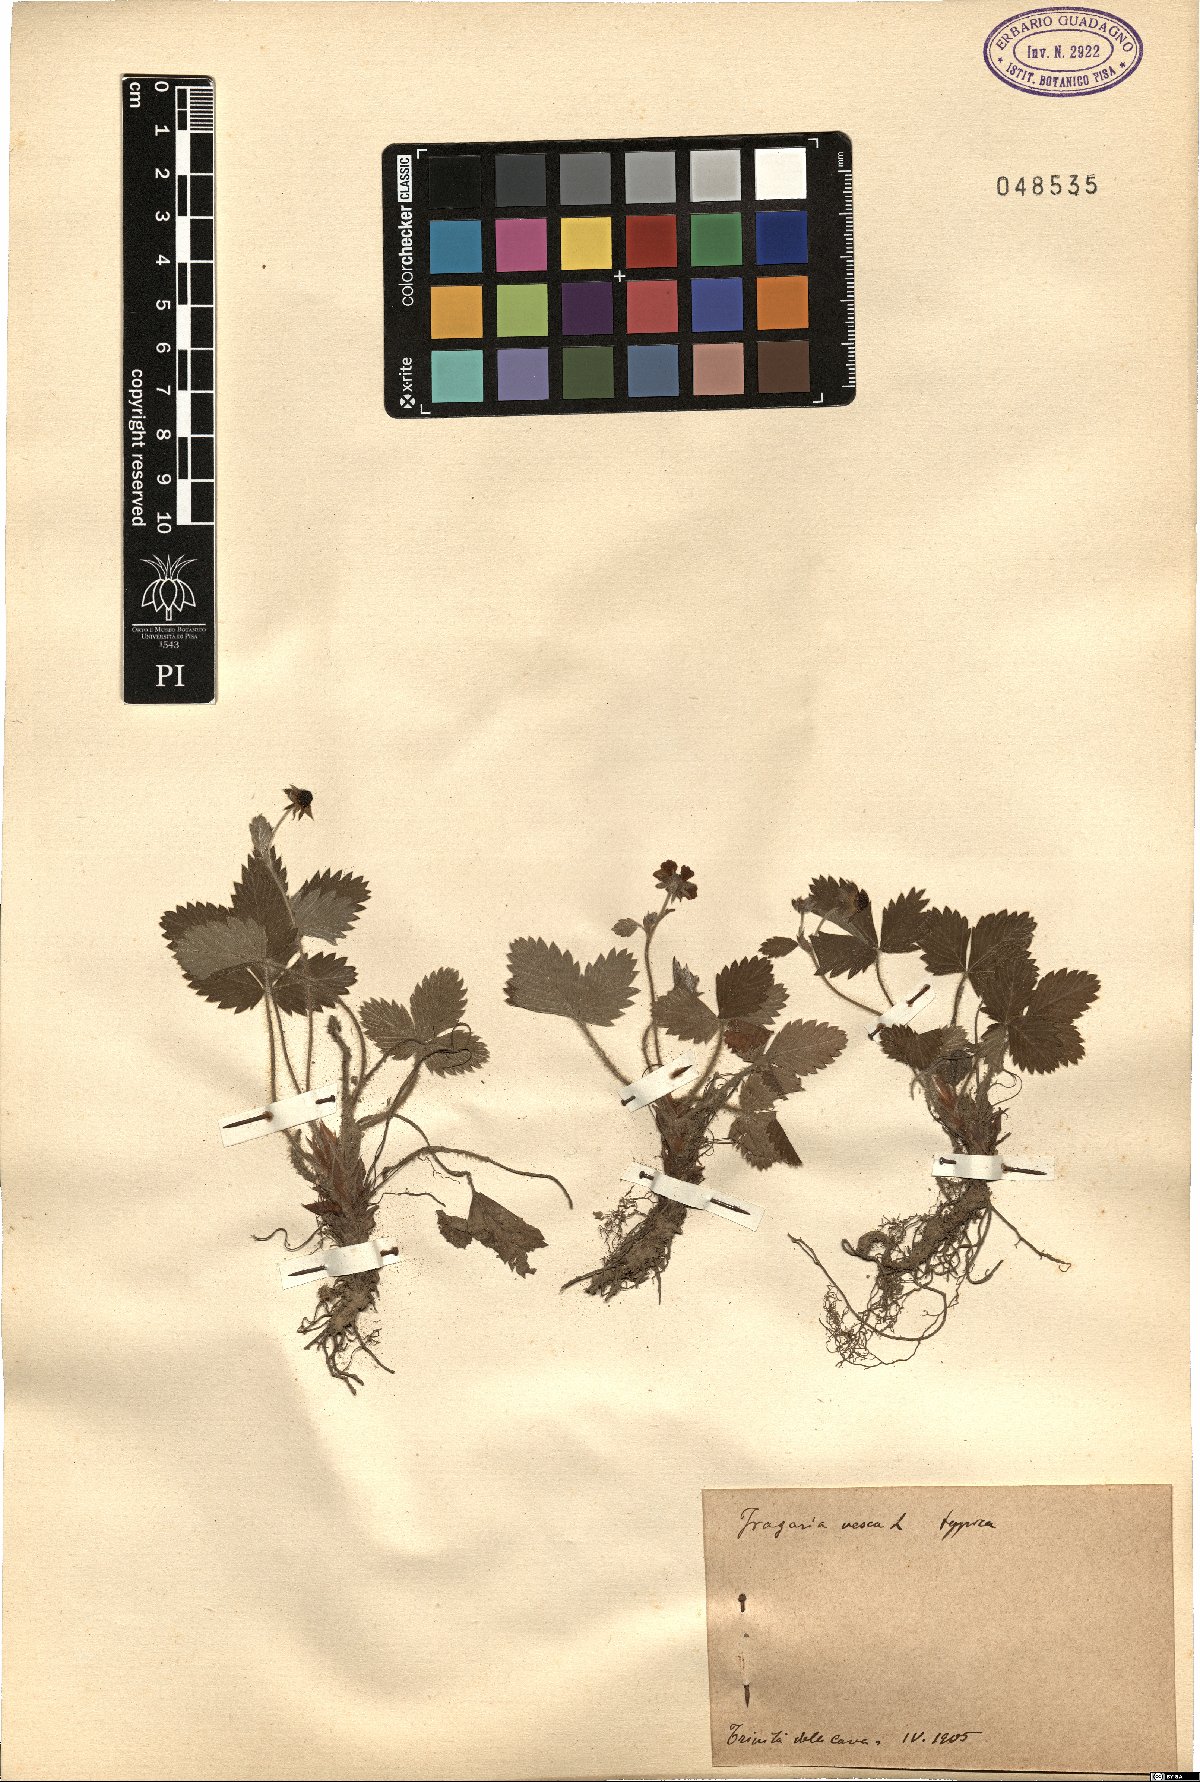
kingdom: Plantae
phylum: Tracheophyta
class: Magnoliopsida
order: Rosales
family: Rosaceae
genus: Fragaria
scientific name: Fragaria vesca
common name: Wild strawberry
